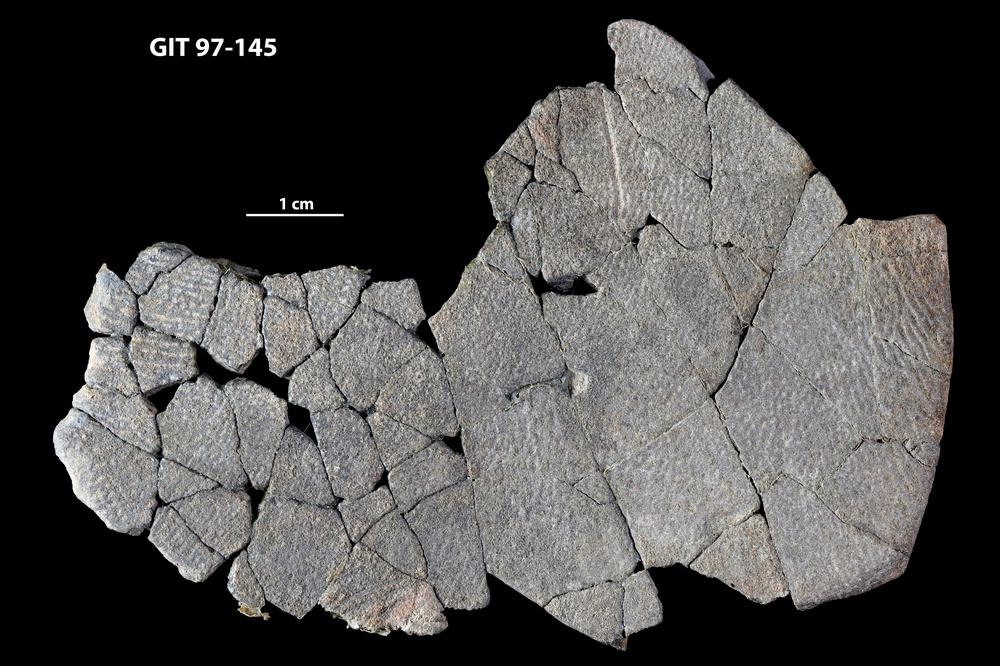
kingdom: Animalia
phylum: Chordata
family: Holonematidae
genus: Holonema
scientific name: Holonema
